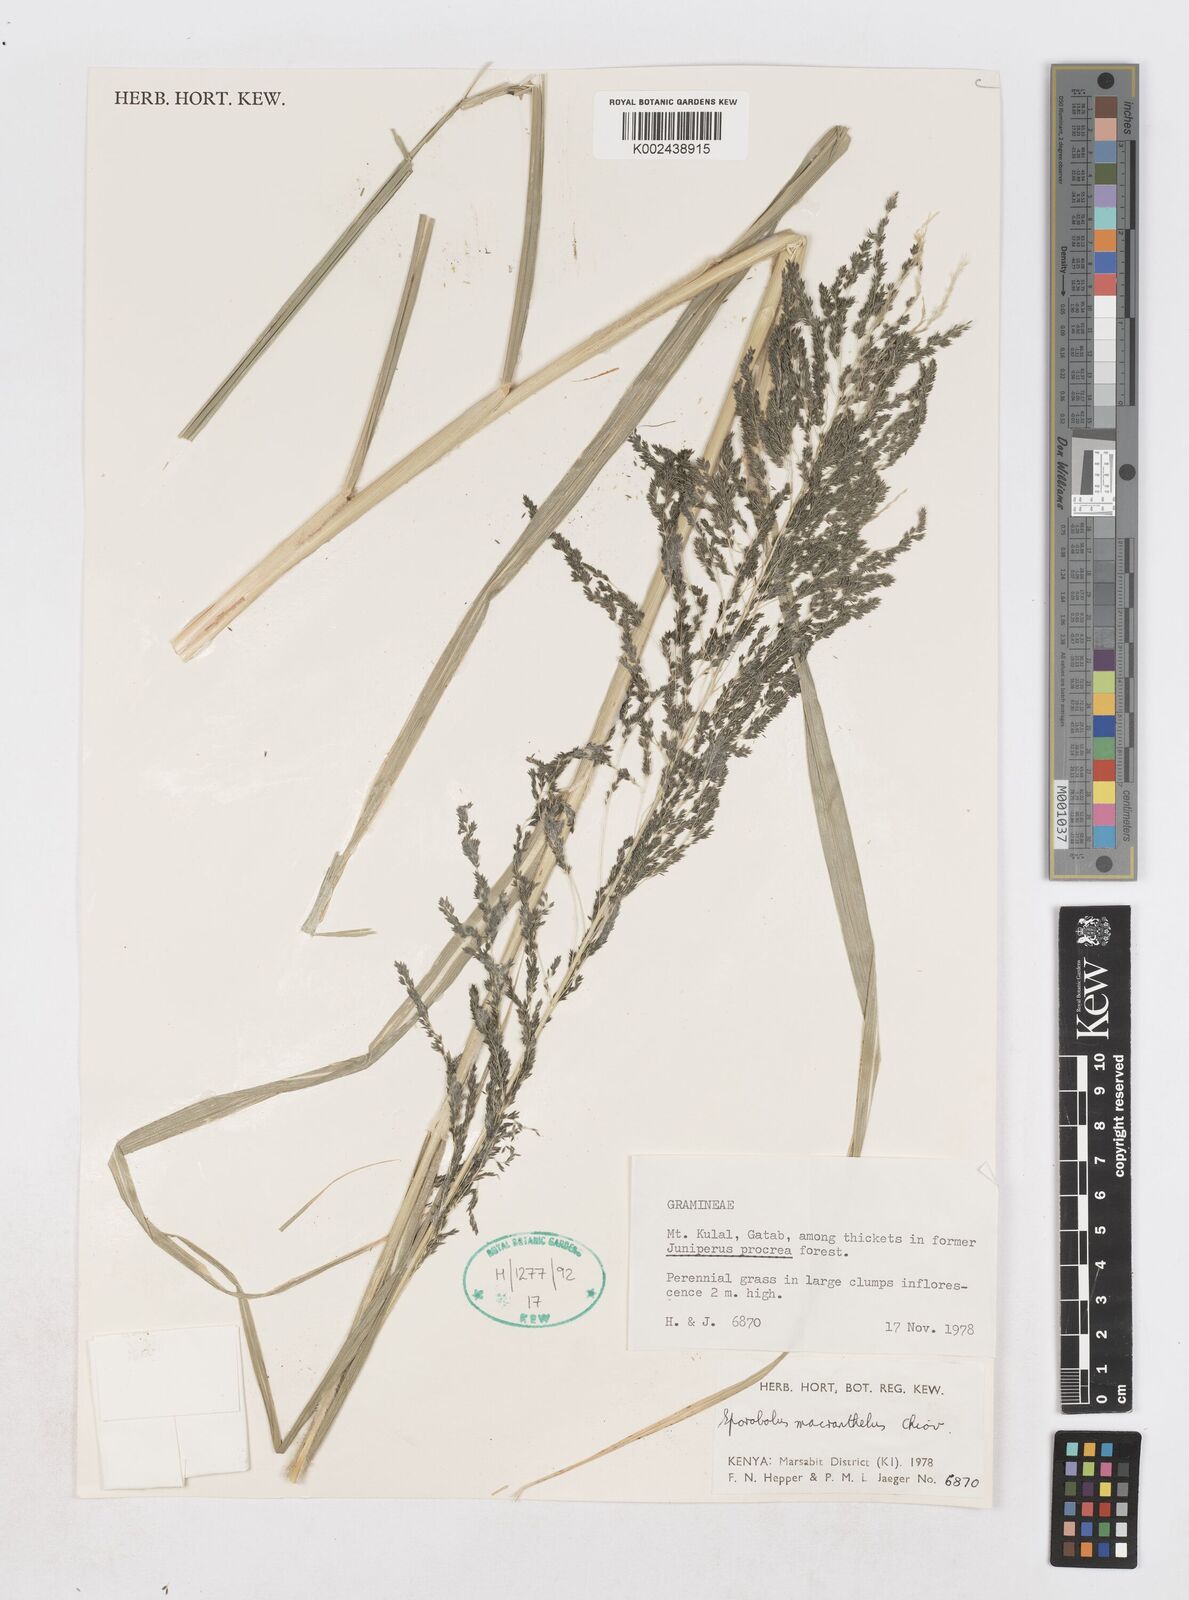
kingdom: Plantae
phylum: Tracheophyta
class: Liliopsida
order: Poales
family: Poaceae
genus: Sporobolus
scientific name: Sporobolus macranthelus
